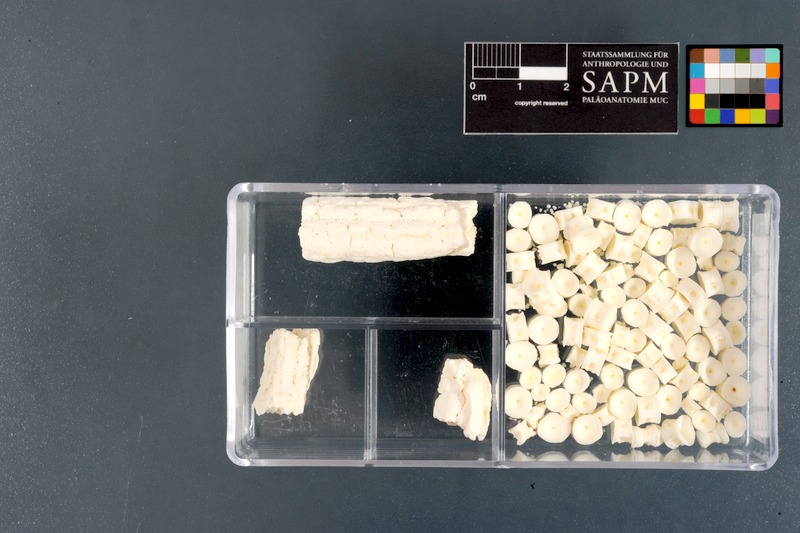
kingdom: Animalia
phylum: Chordata
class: Elasmobranchii
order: Myliobatiformes
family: Potamotrygonidae
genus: Potamotrygon
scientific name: Potamotrygon motoro
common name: South american freshwater stingray
